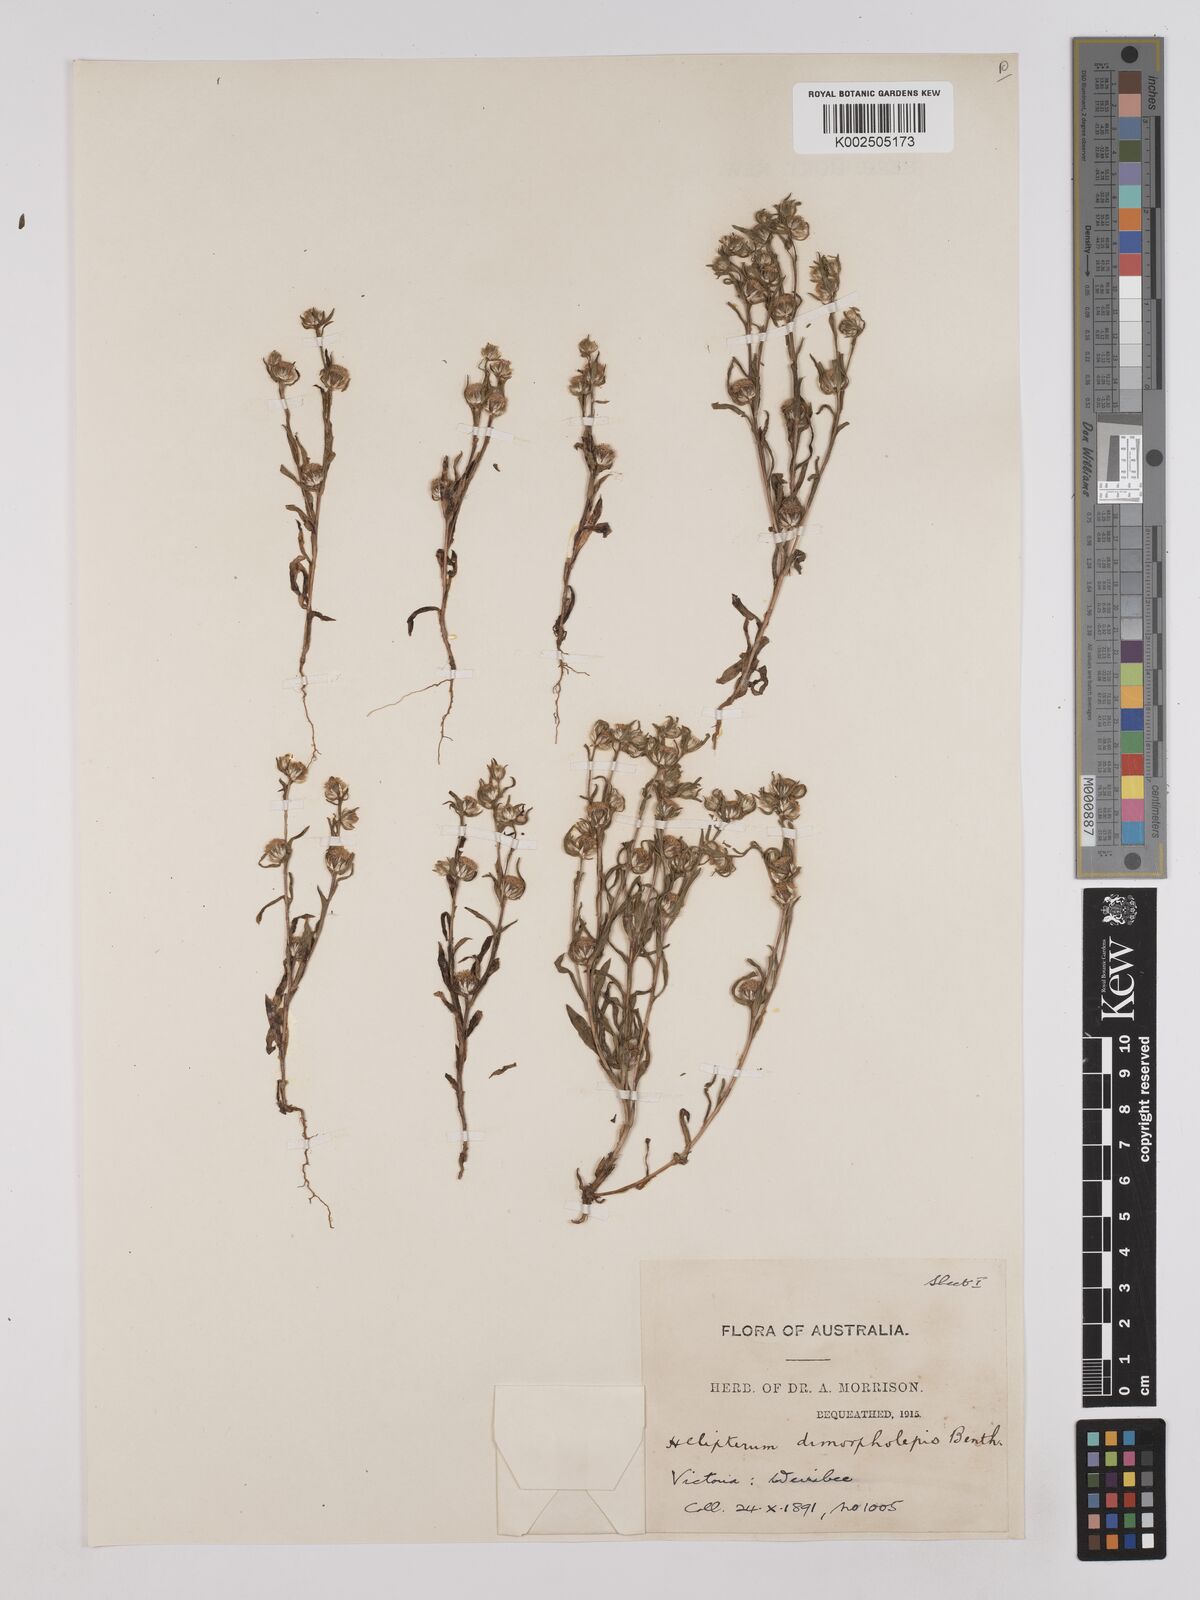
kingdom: Plantae
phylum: Tracheophyta
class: Magnoliopsida
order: Asterales
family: Asteraceae
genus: Triptilodiscus
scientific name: Triptilodiscus pygmaeus
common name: Common sunray
